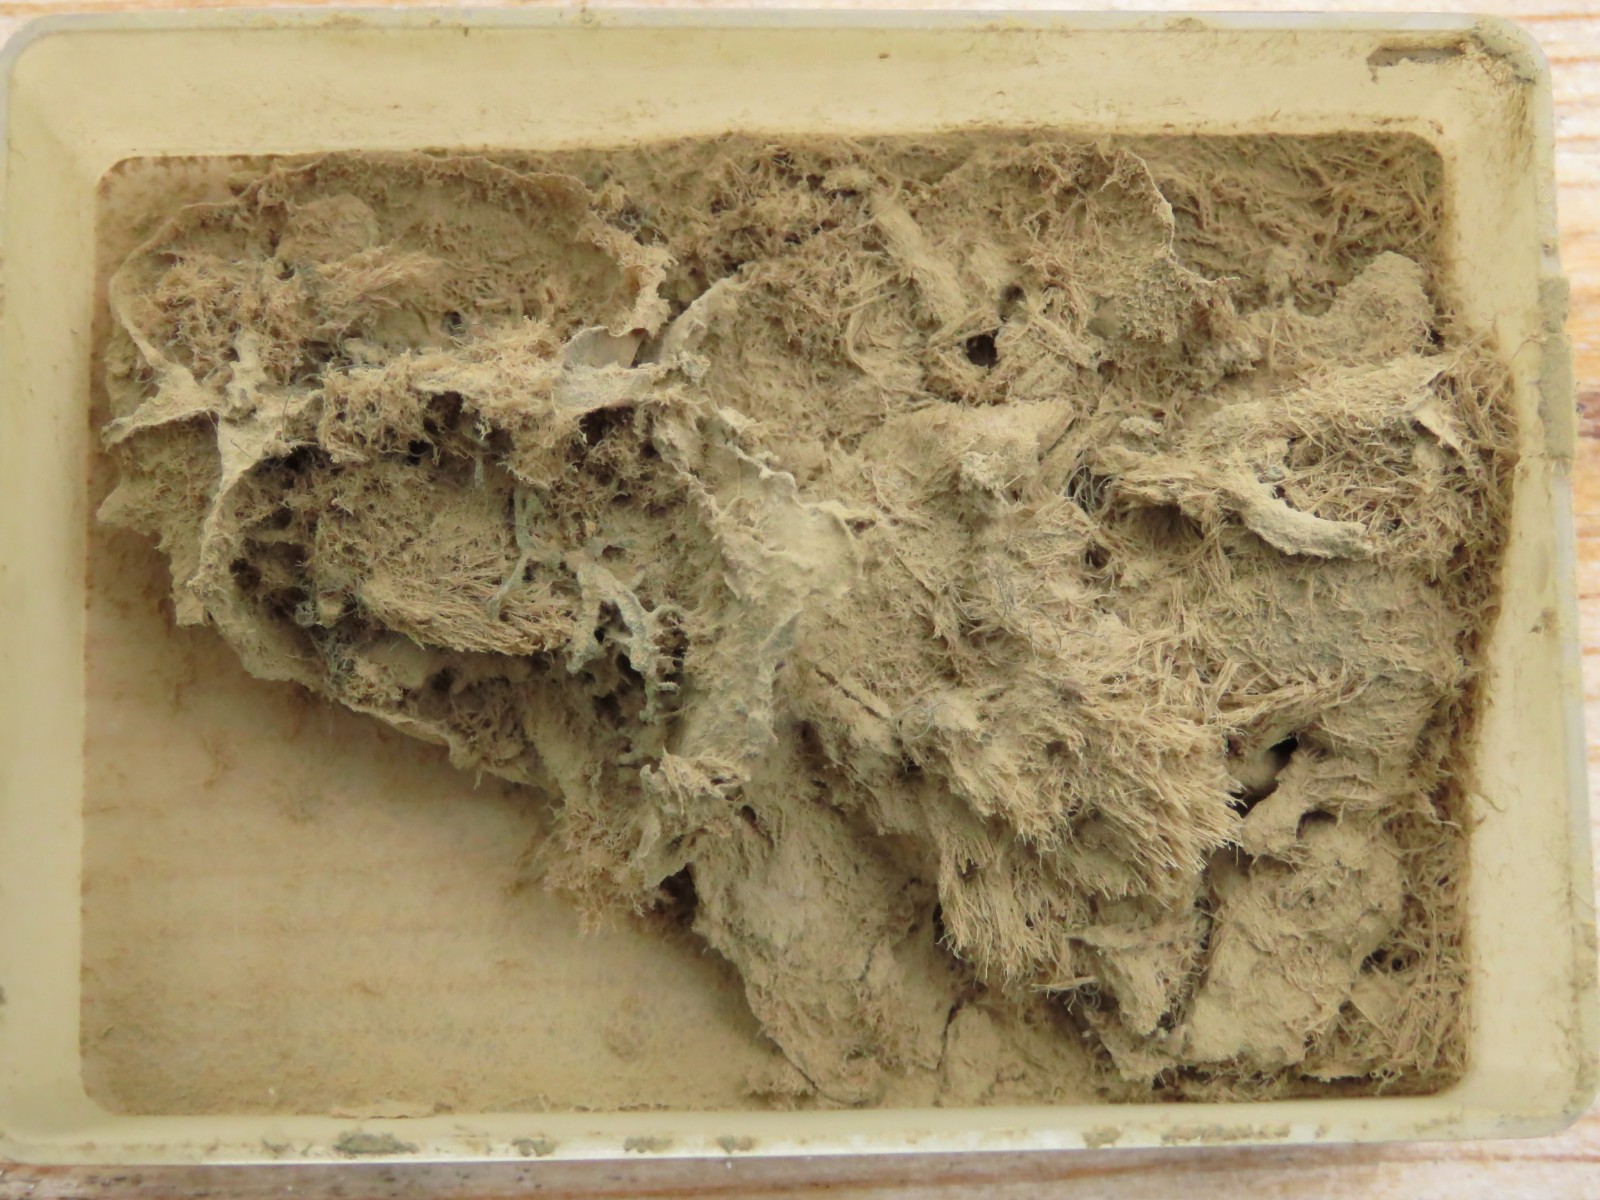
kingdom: Protozoa
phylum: Mycetozoa
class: Myxomycetes
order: Cribrariales
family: Tubiferaceae
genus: Lycogala
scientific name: Lycogala flavofuscum
